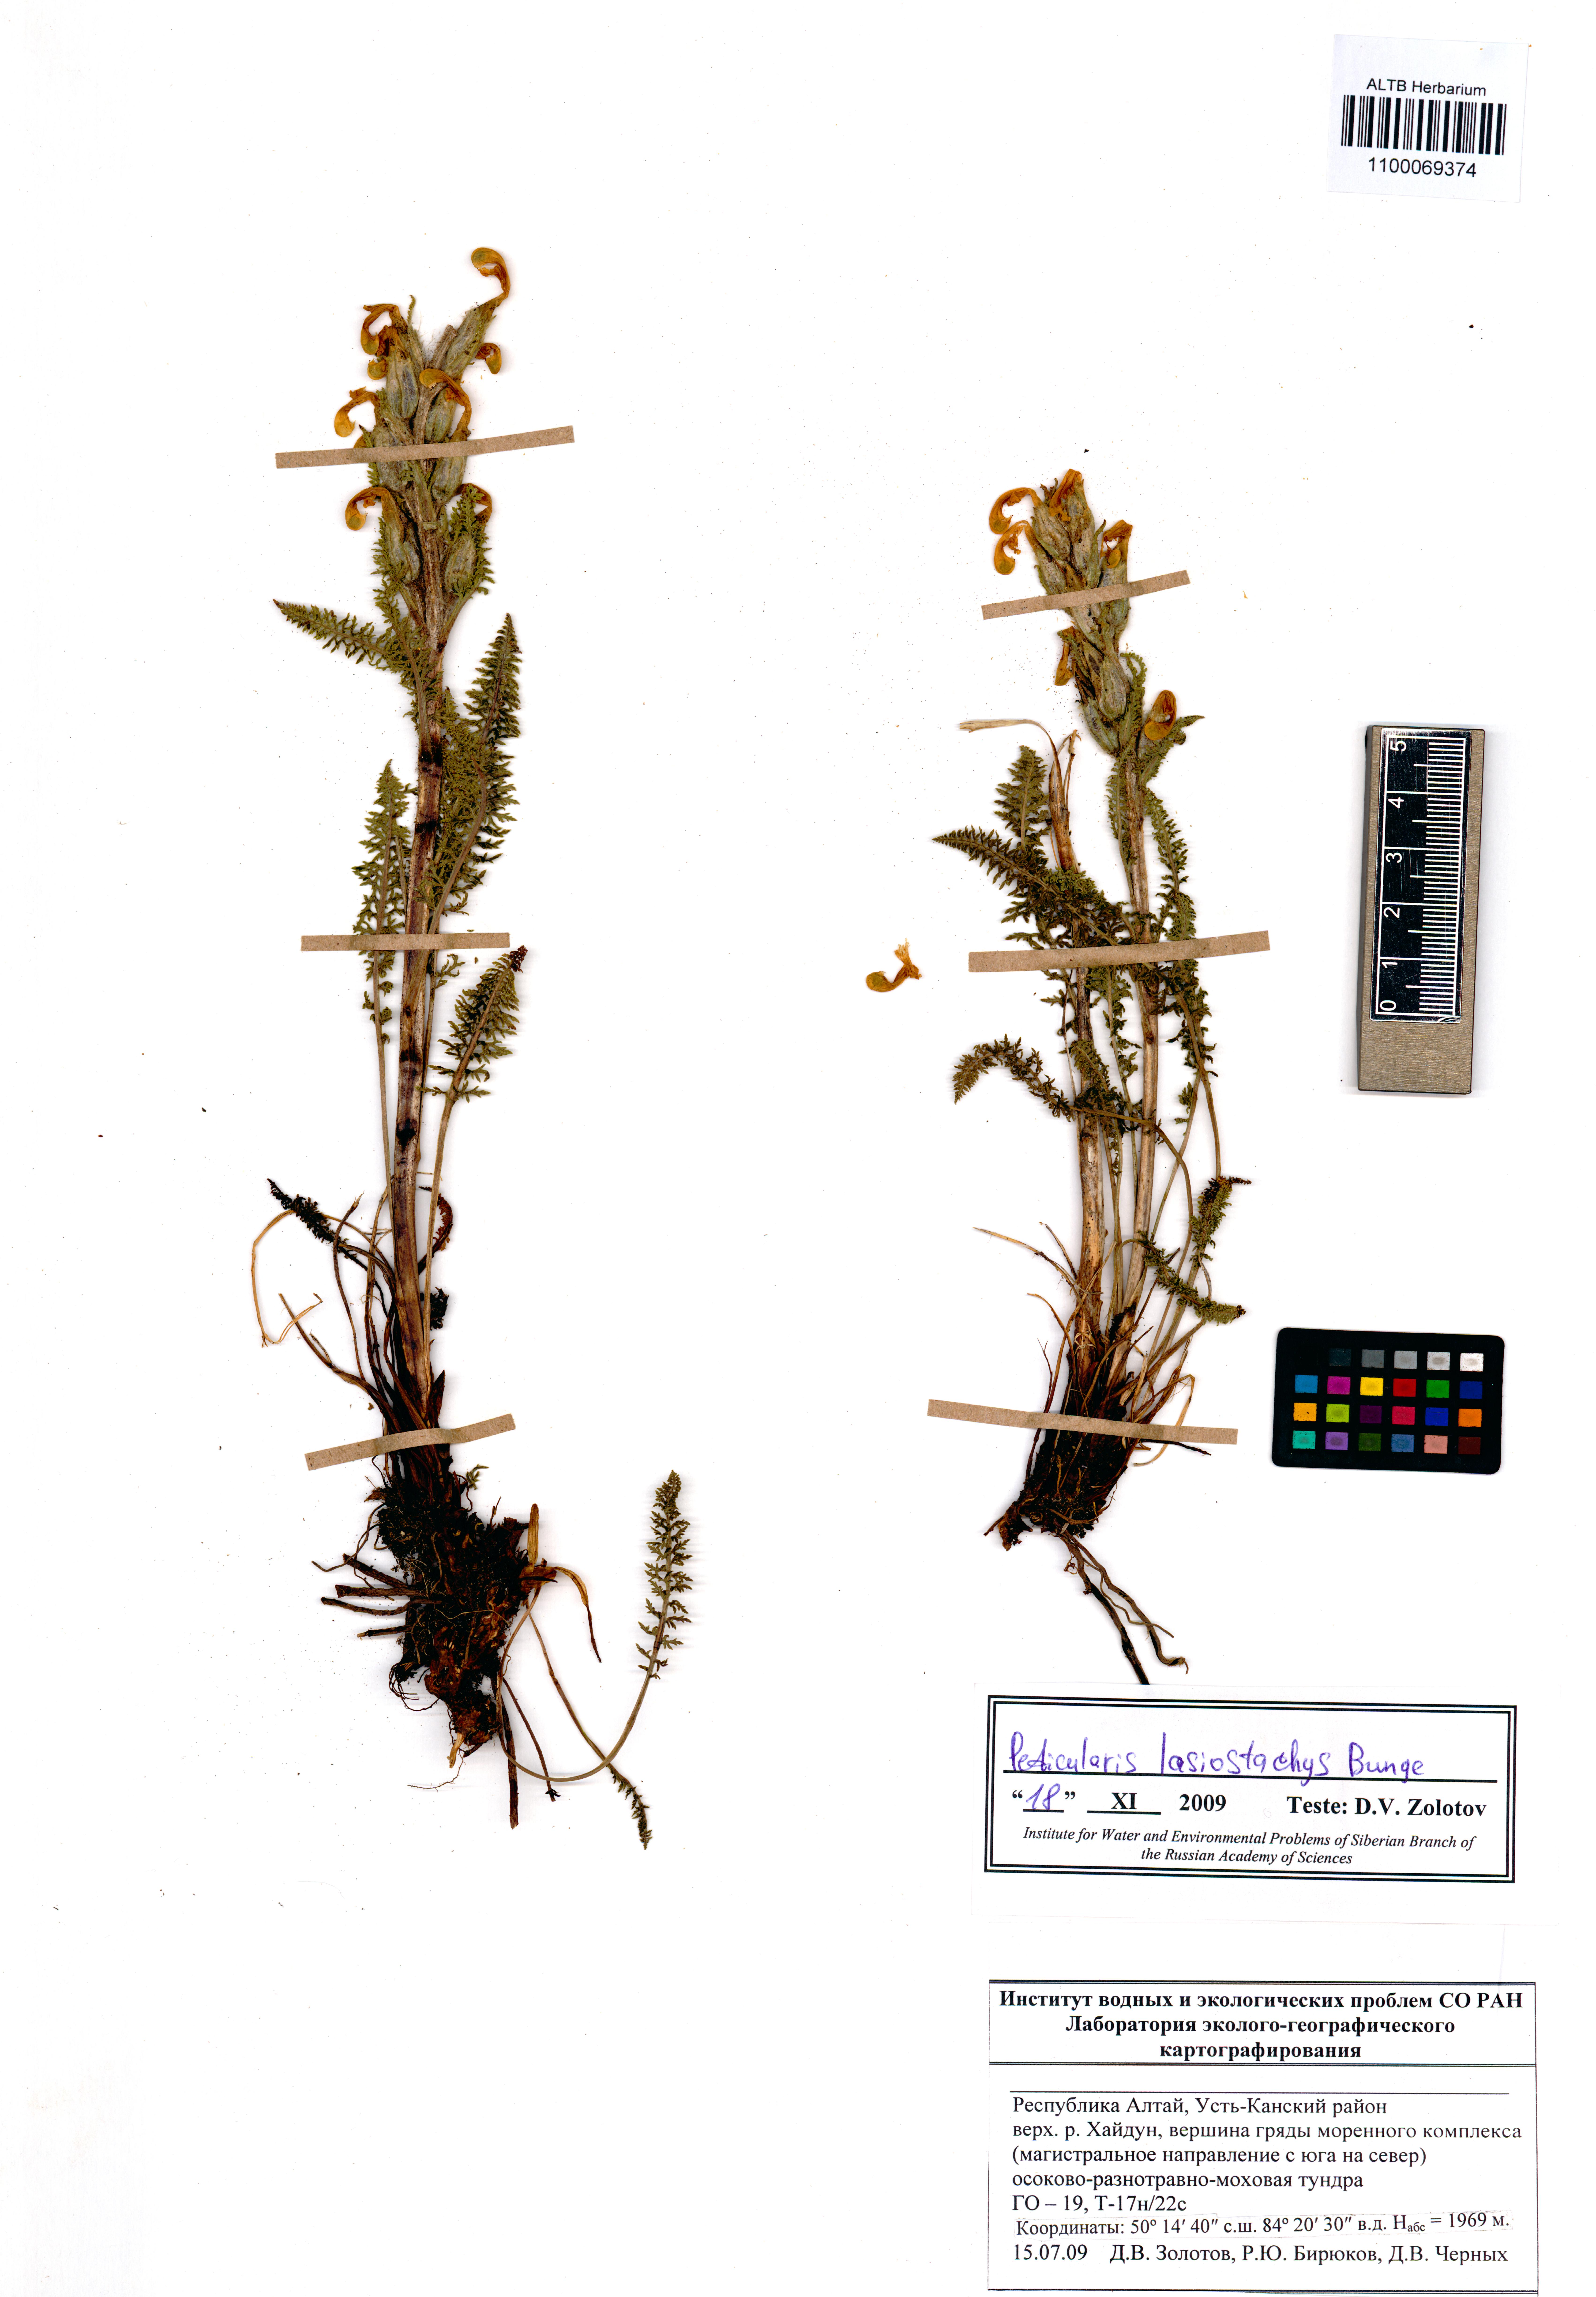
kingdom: Plantae
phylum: Tracheophyta
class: Magnoliopsida
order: Lamiales
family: Orobanchaceae
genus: Pedicularis
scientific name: Pedicularis lasiostachys
